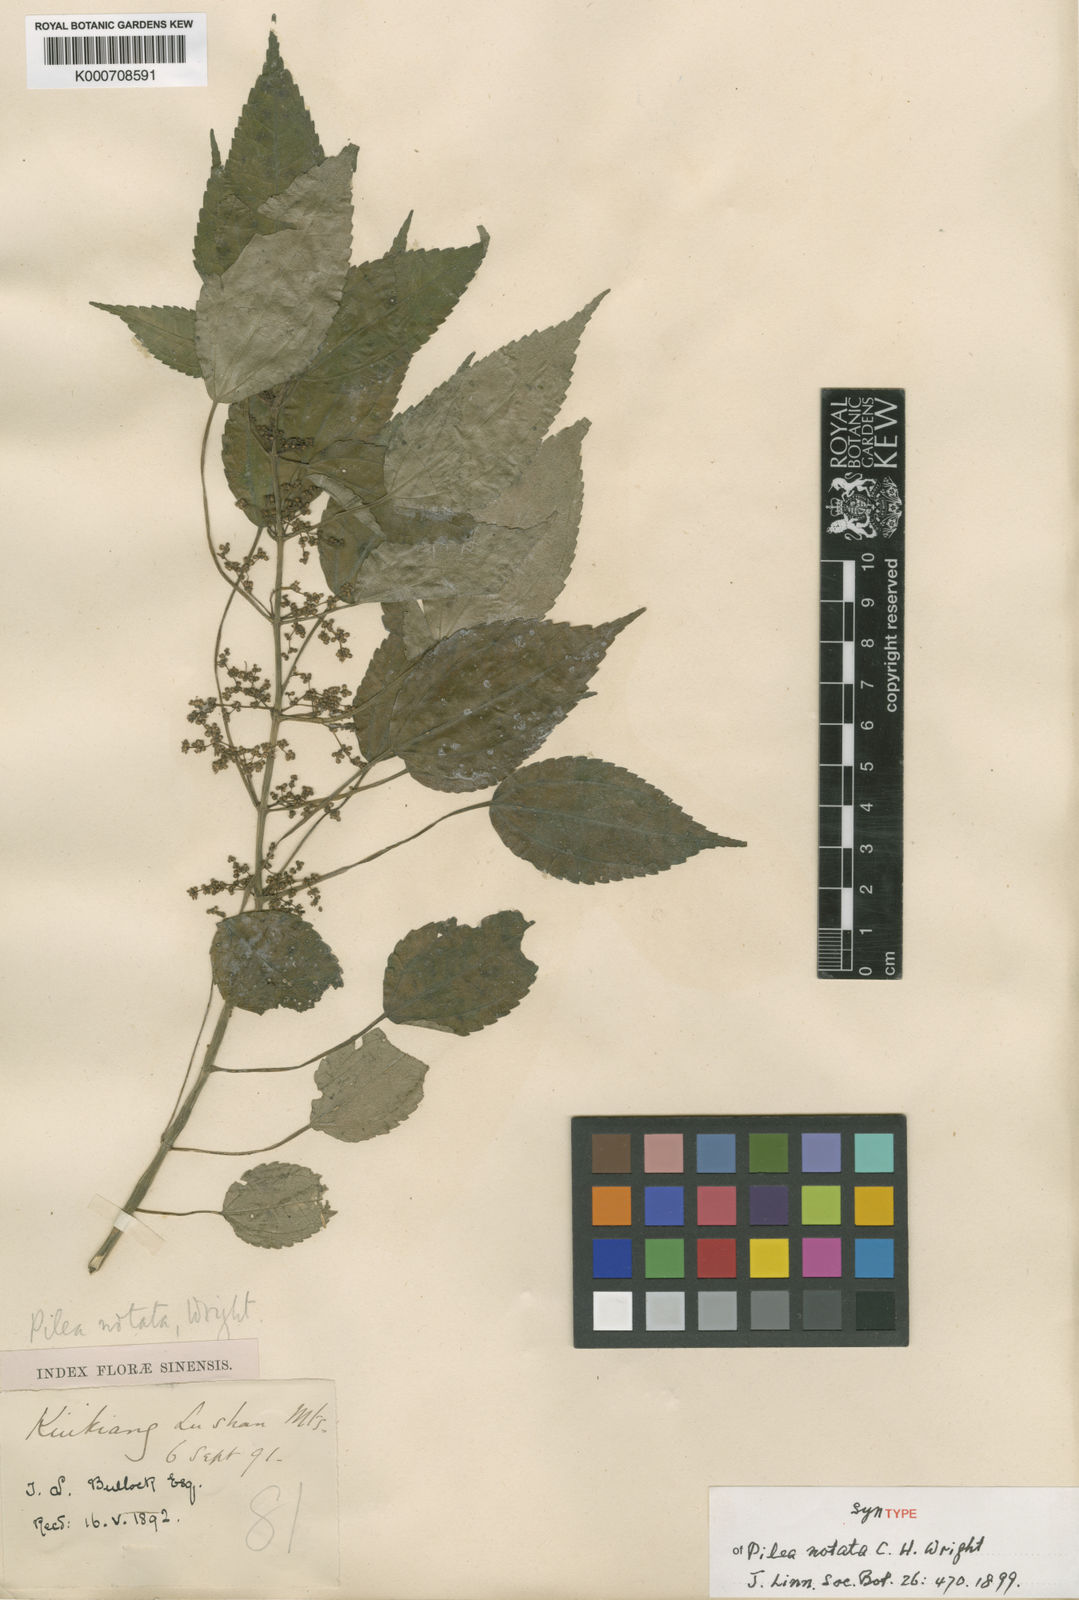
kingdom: Plantae
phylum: Tracheophyta
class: Magnoliopsida
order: Rosales
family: Urticaceae
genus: Pilea
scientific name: Pilea notata
